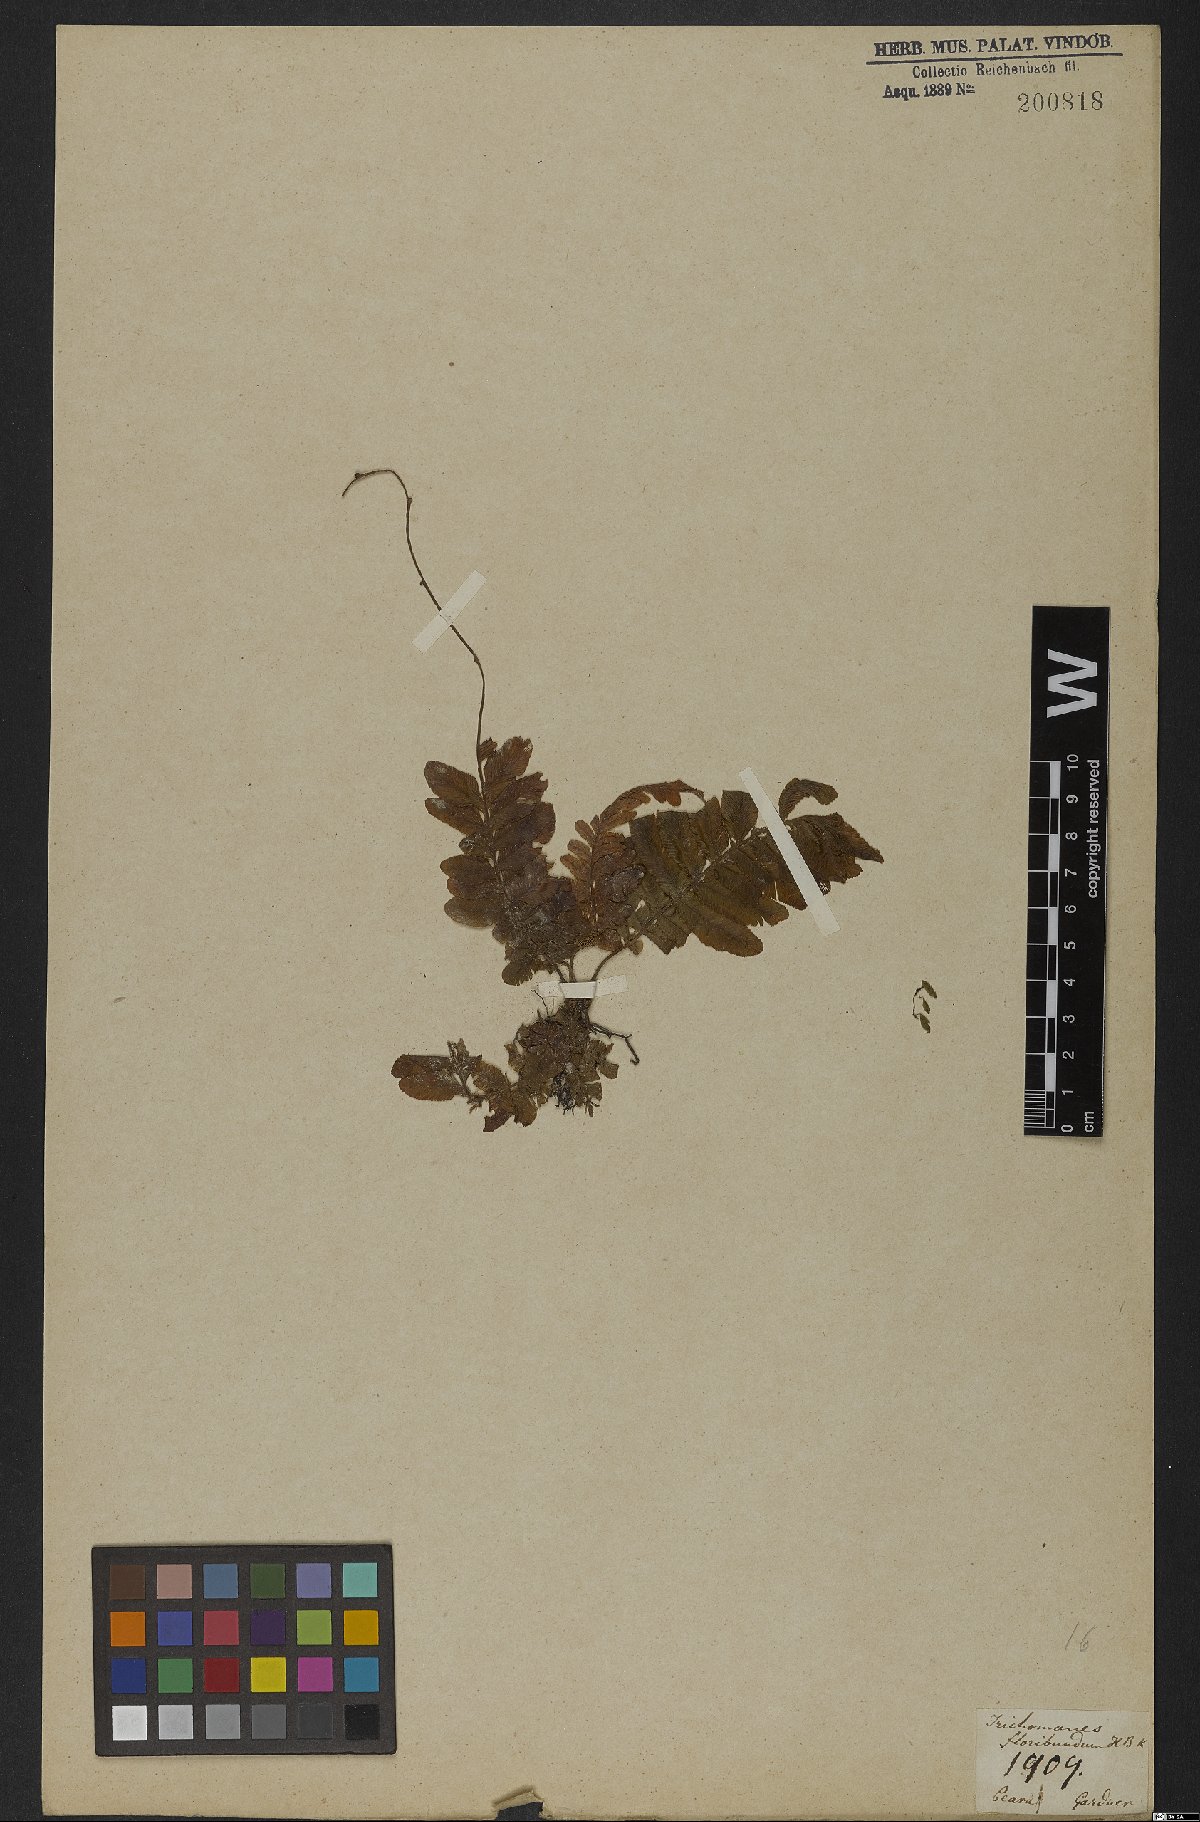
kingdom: Plantae
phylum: Tracheophyta
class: Polypodiopsida
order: Hymenophyllales
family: Hymenophyllaceae
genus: Trichomanes
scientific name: Trichomanes pinnatum
